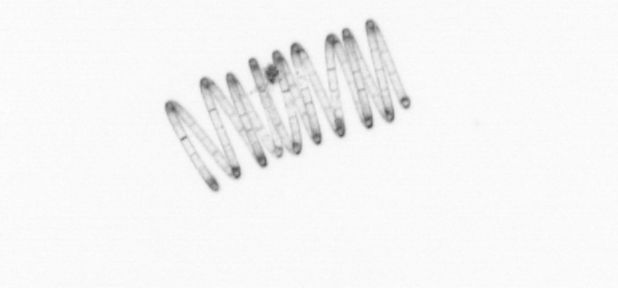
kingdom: Chromista
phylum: Ochrophyta
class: Bacillariophyceae
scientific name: Bacillariophyceae
